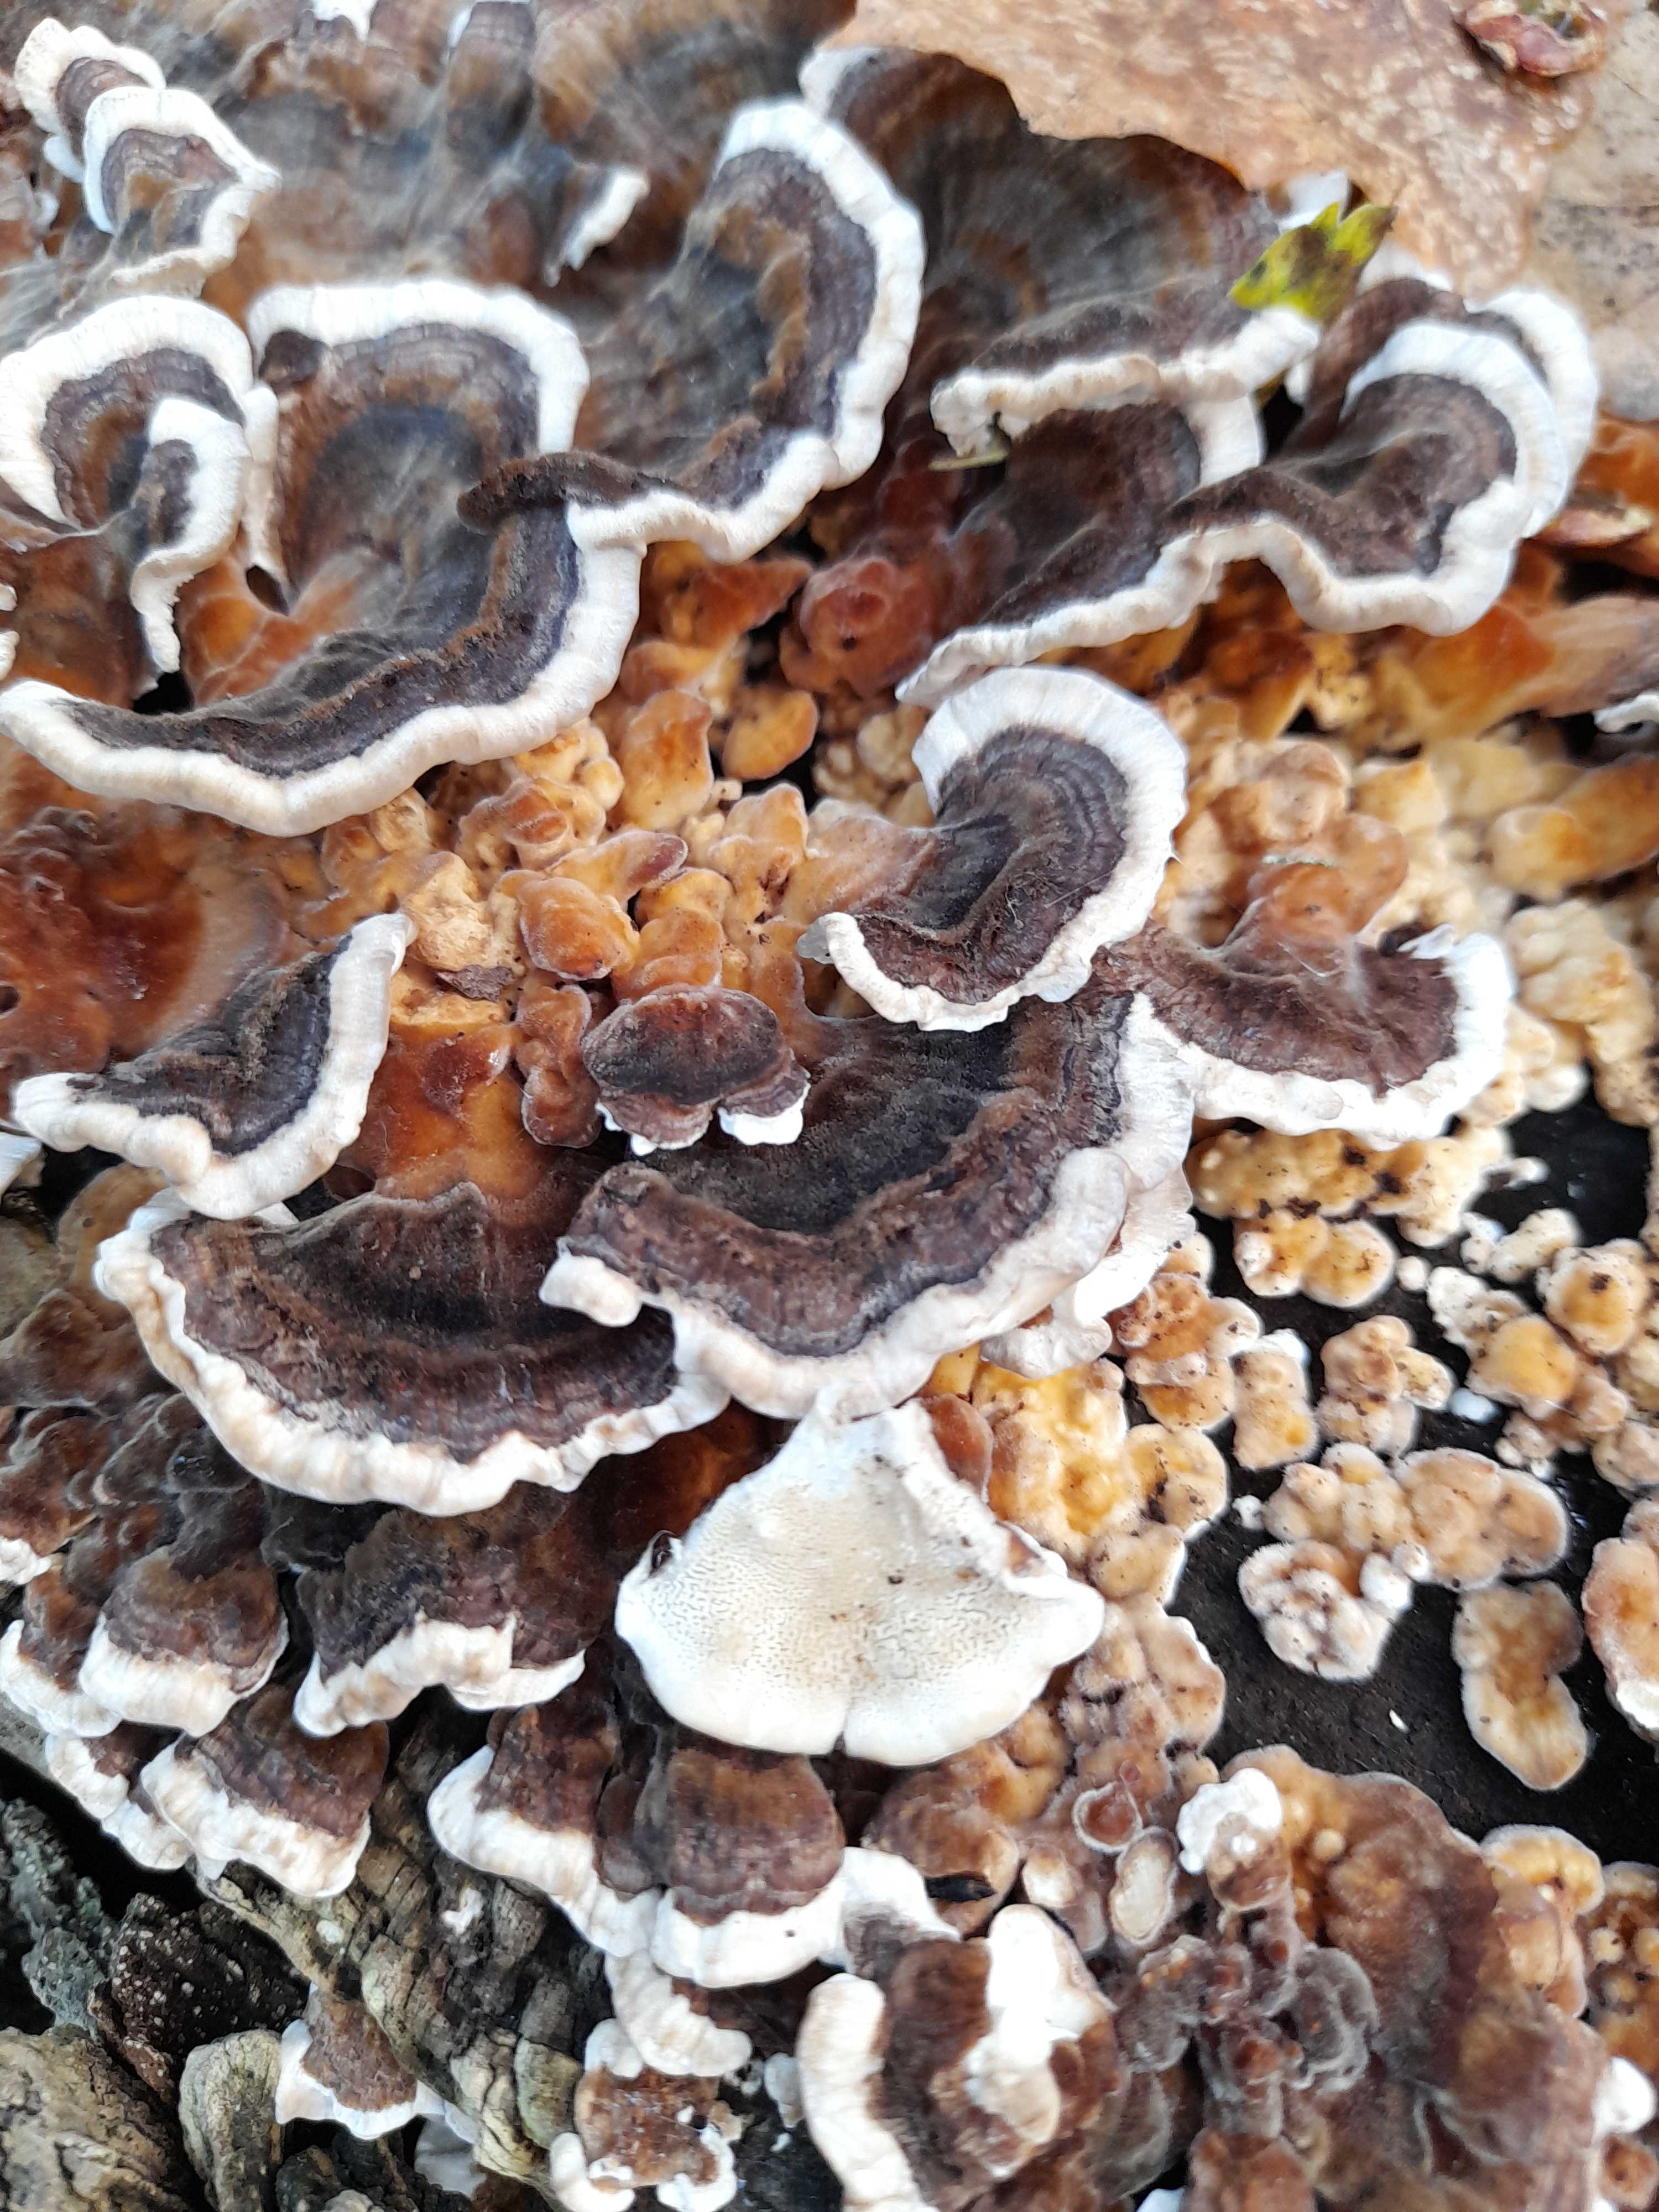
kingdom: Fungi
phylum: Basidiomycota
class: Agaricomycetes
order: Polyporales
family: Polyporaceae
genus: Trametes
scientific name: Trametes versicolor
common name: broget læderporesvamp
